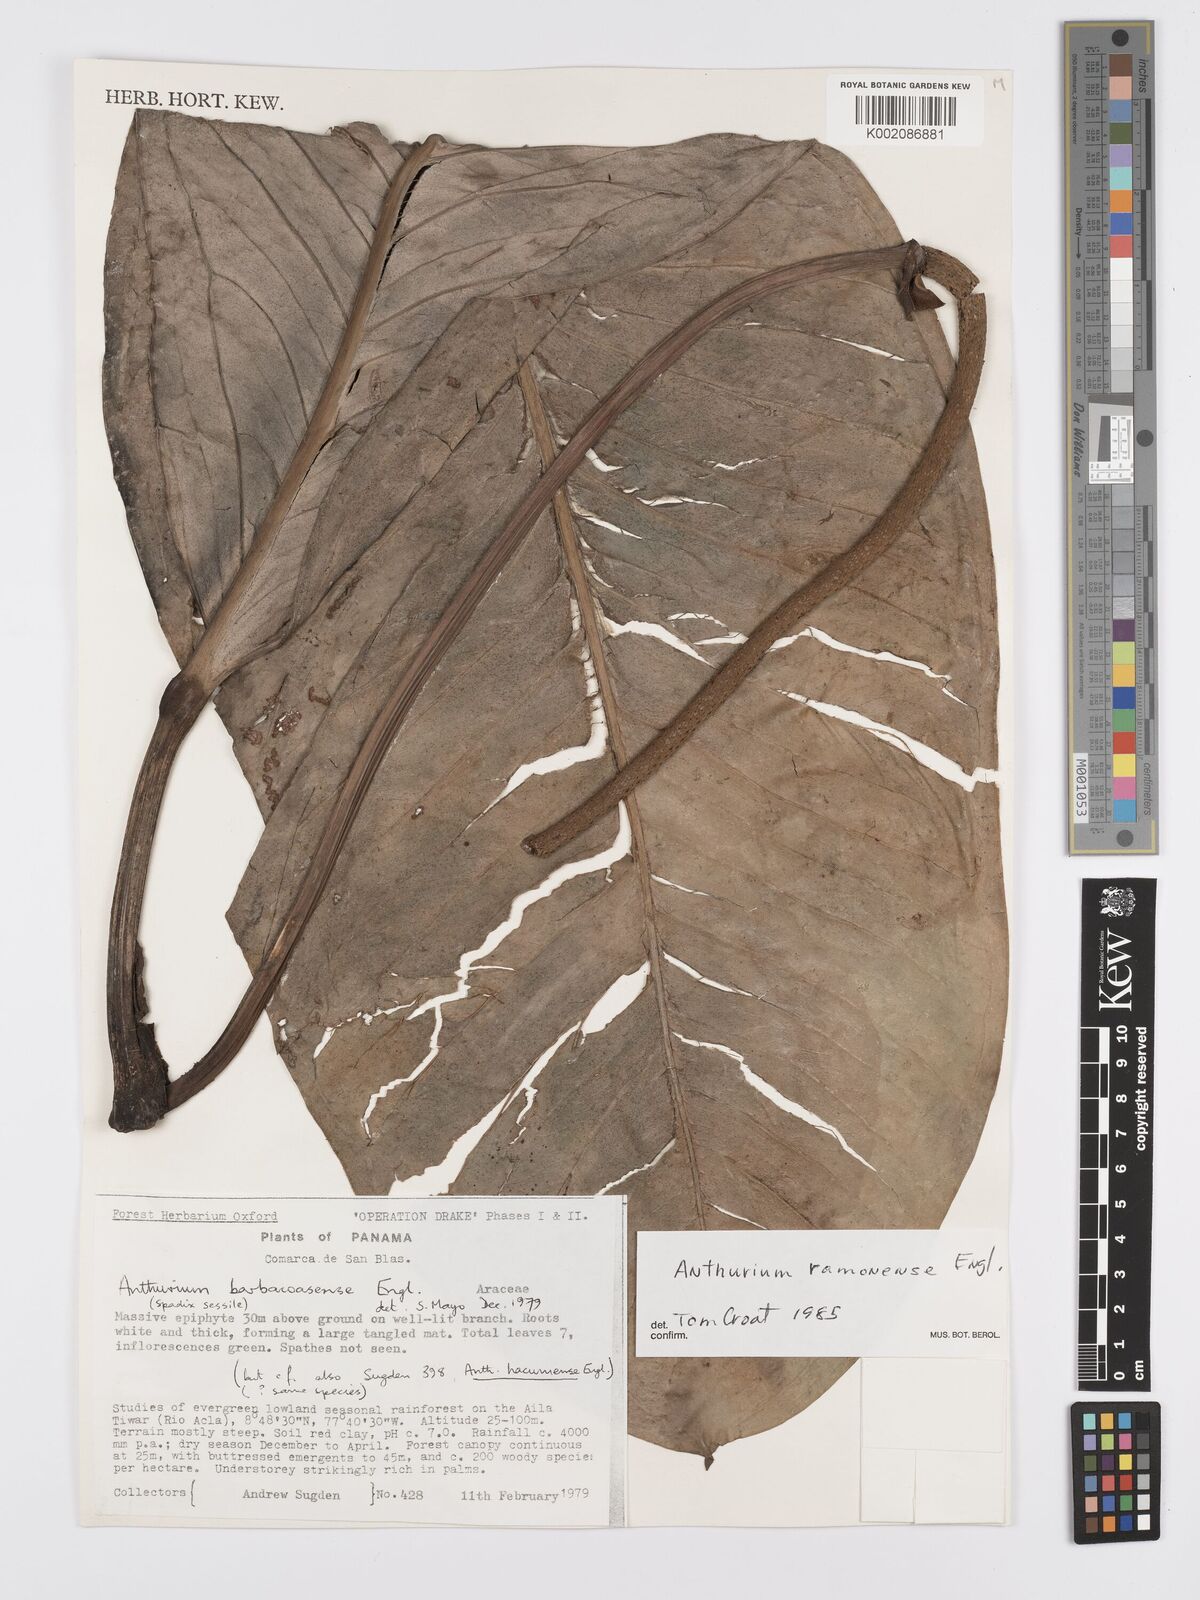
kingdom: Plantae
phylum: Tracheophyta
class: Liliopsida
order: Alismatales
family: Araceae
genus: Anthurium
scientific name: Anthurium ramonense
